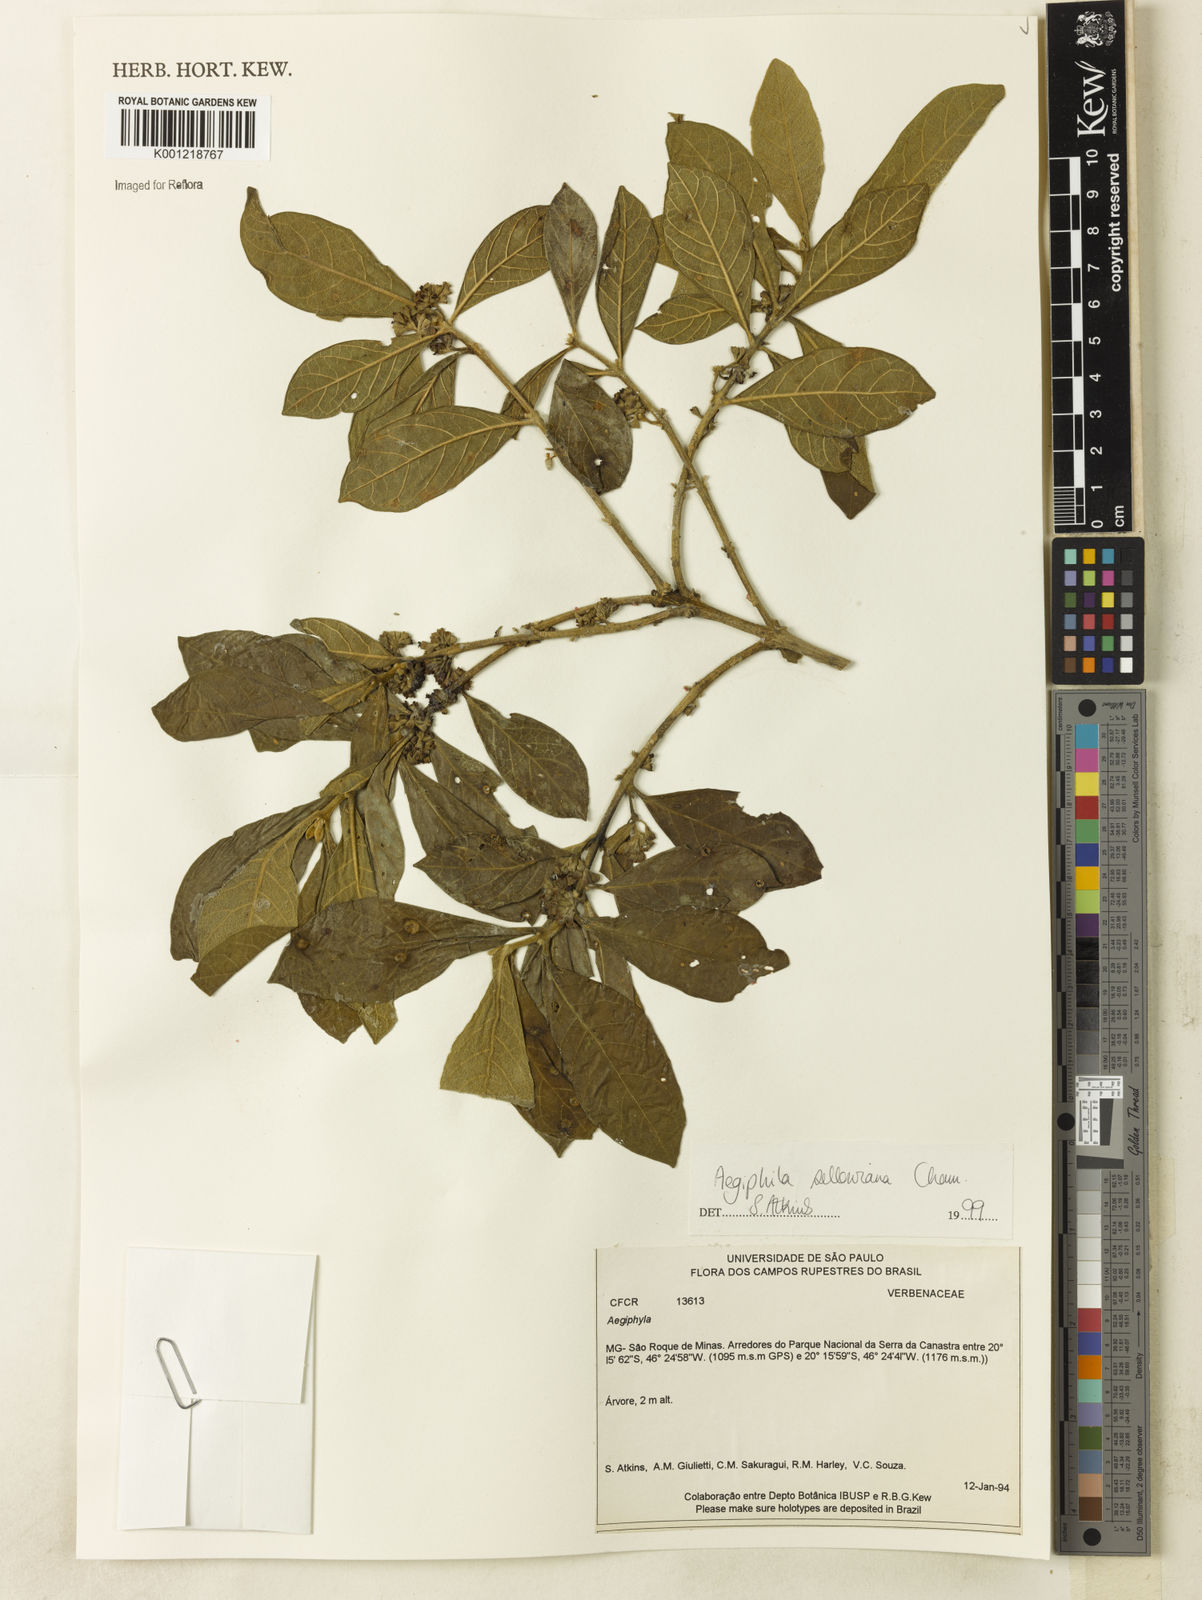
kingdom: Plantae
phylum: Tracheophyta
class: Magnoliopsida
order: Lamiales
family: Lamiaceae
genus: Aegiphila
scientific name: Aegiphila verticillata
